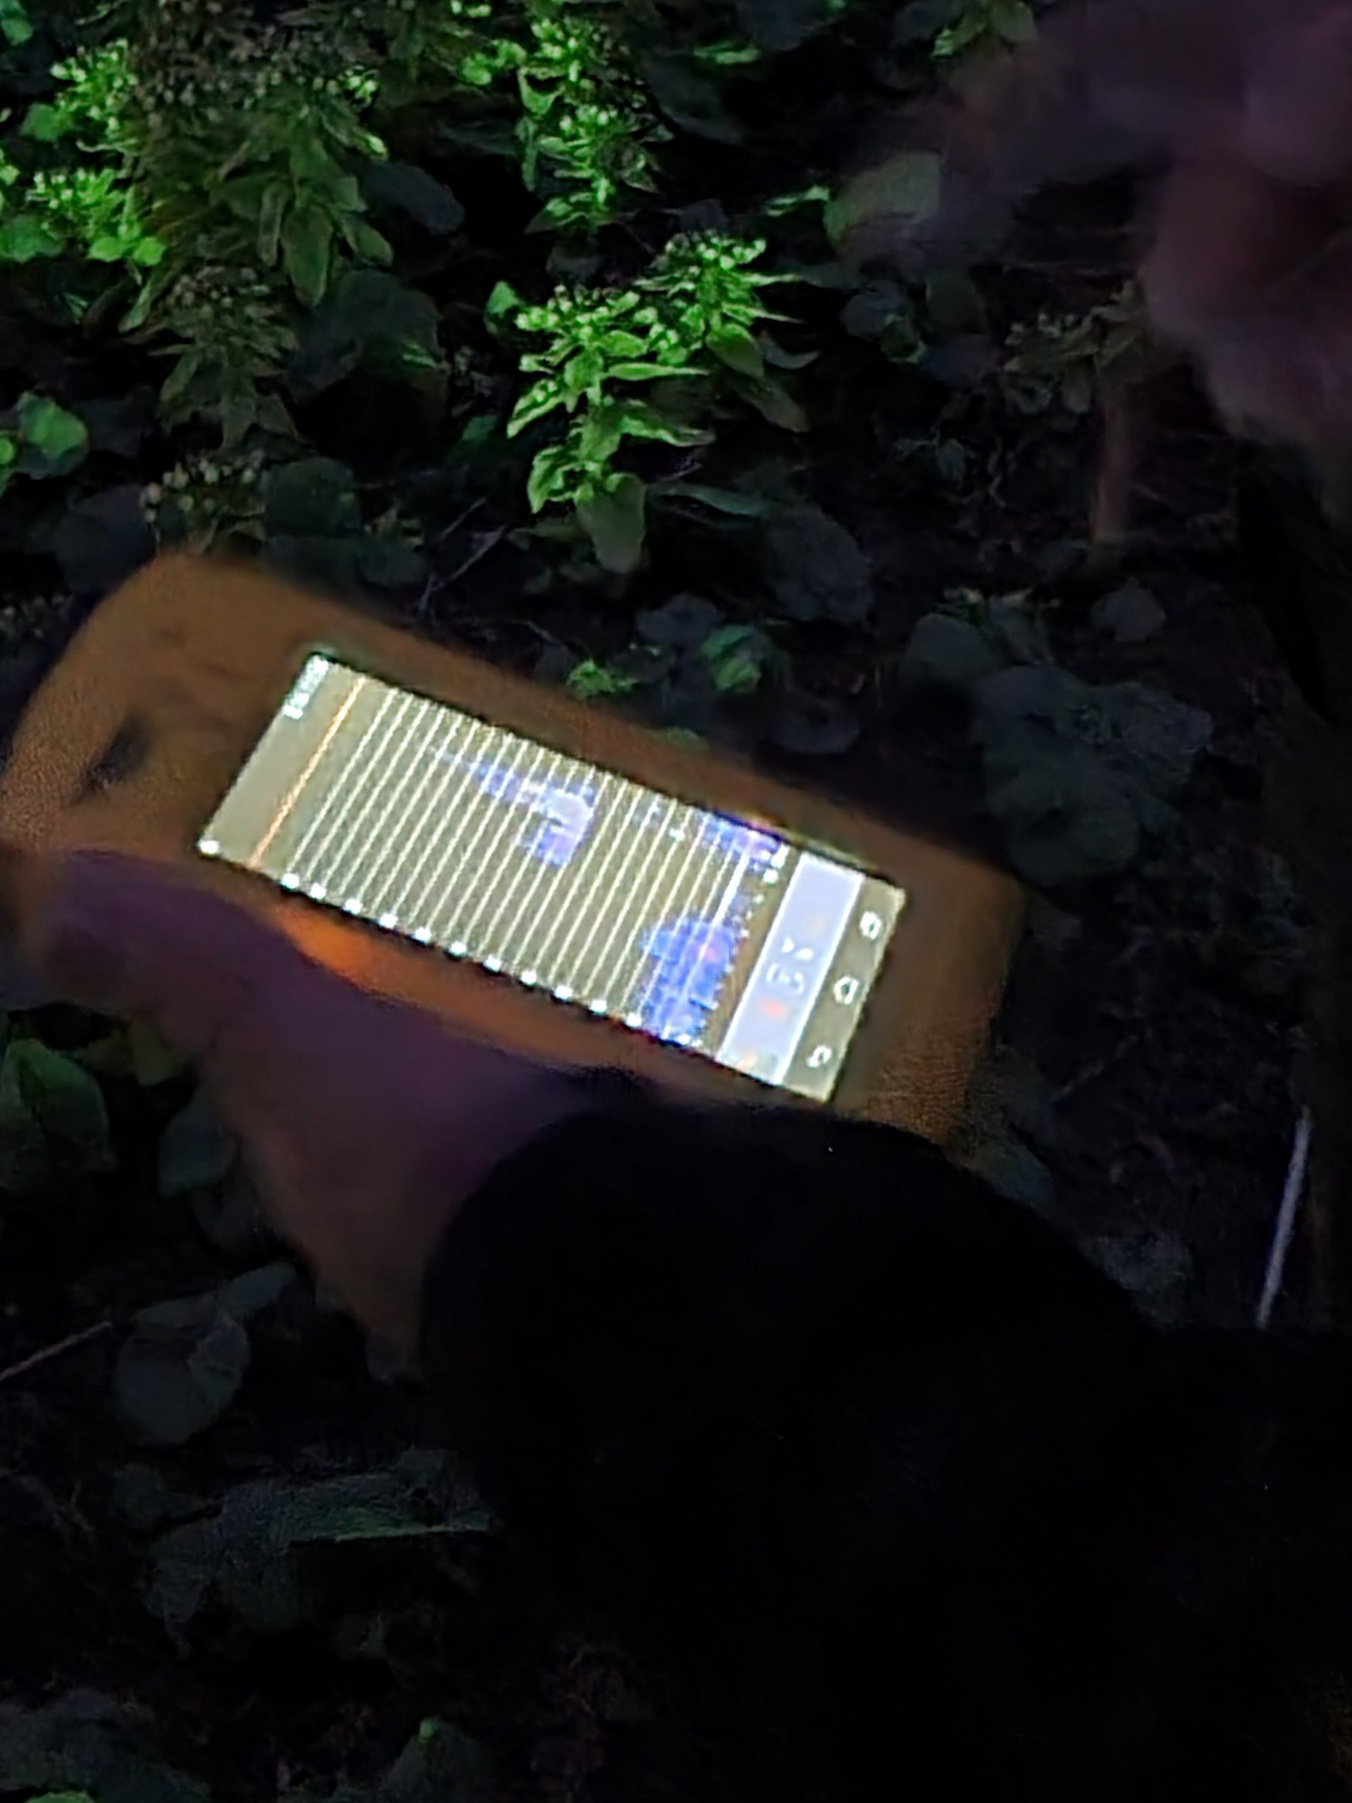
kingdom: Animalia
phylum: Chordata
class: Mammalia
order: Chiroptera
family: Vespertilionidae
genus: Pipistrellus
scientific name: Pipistrellus pygmaeus
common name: Dværgflagermus
